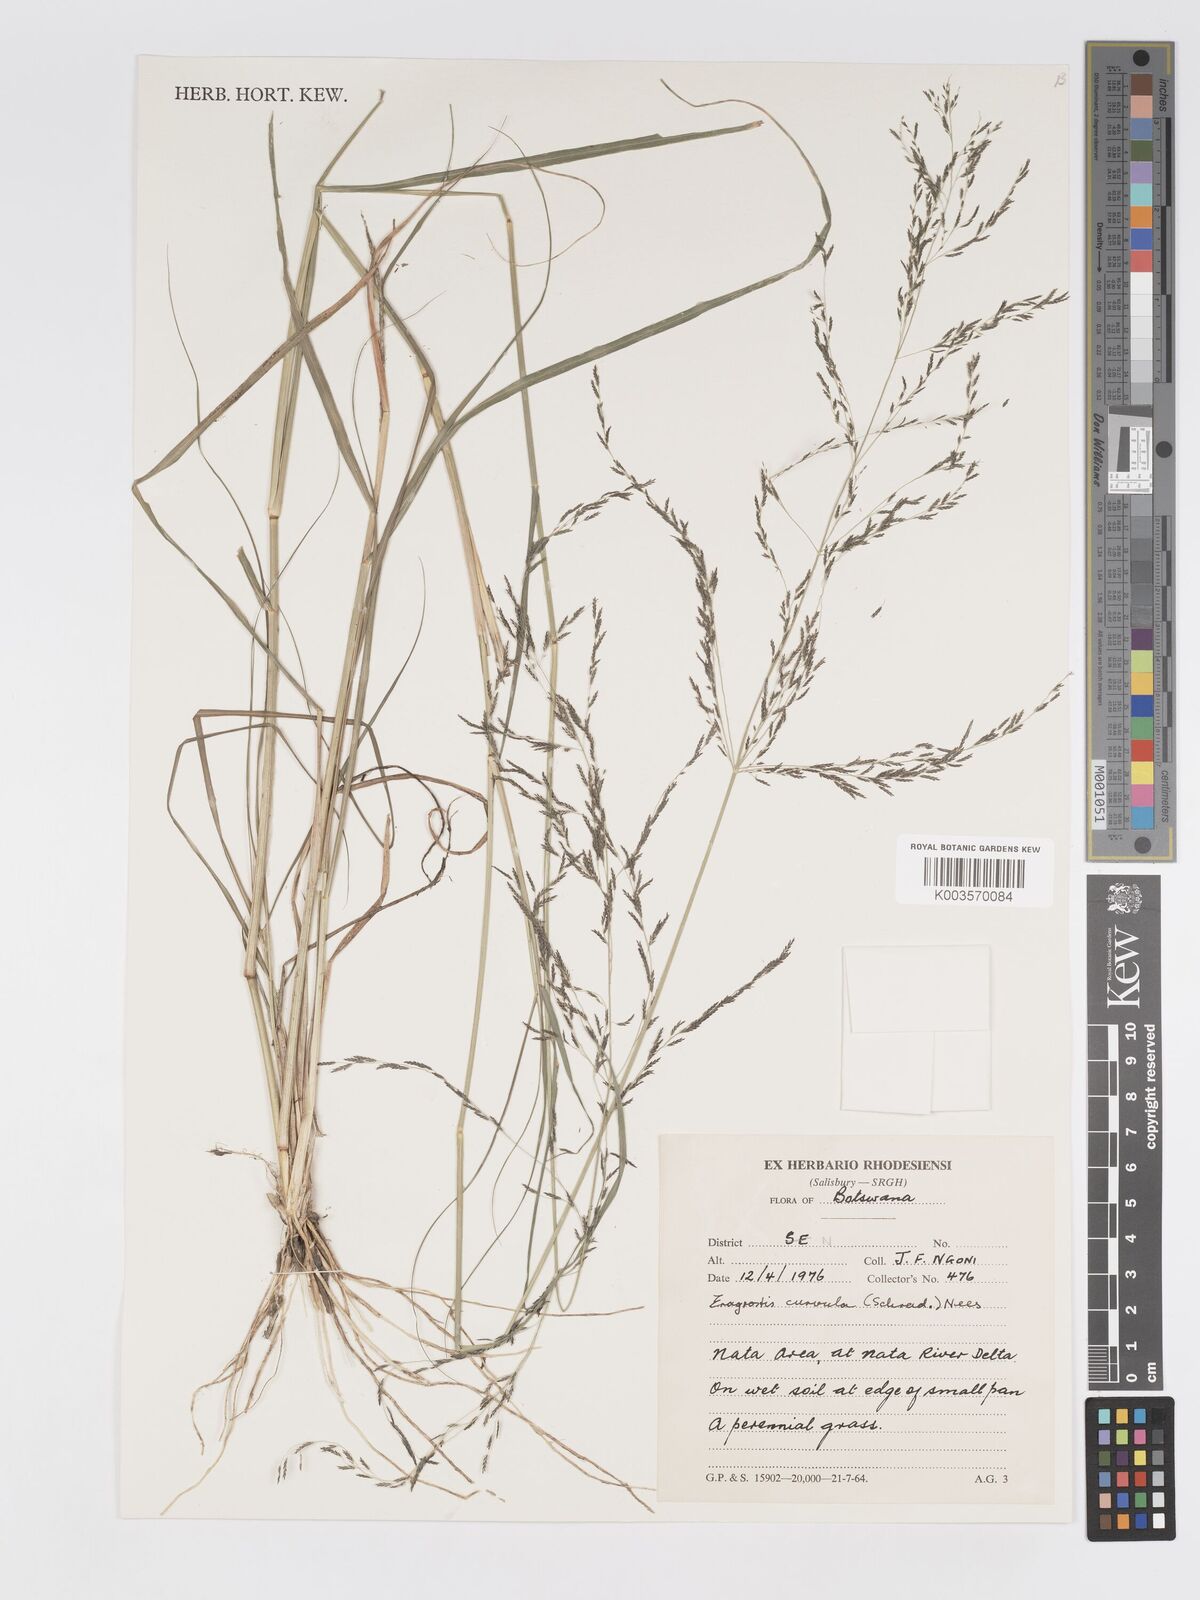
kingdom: Plantae
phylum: Tracheophyta
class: Liliopsida
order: Poales
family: Poaceae
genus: Eragrostis
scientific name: Eragrostis rotifer
